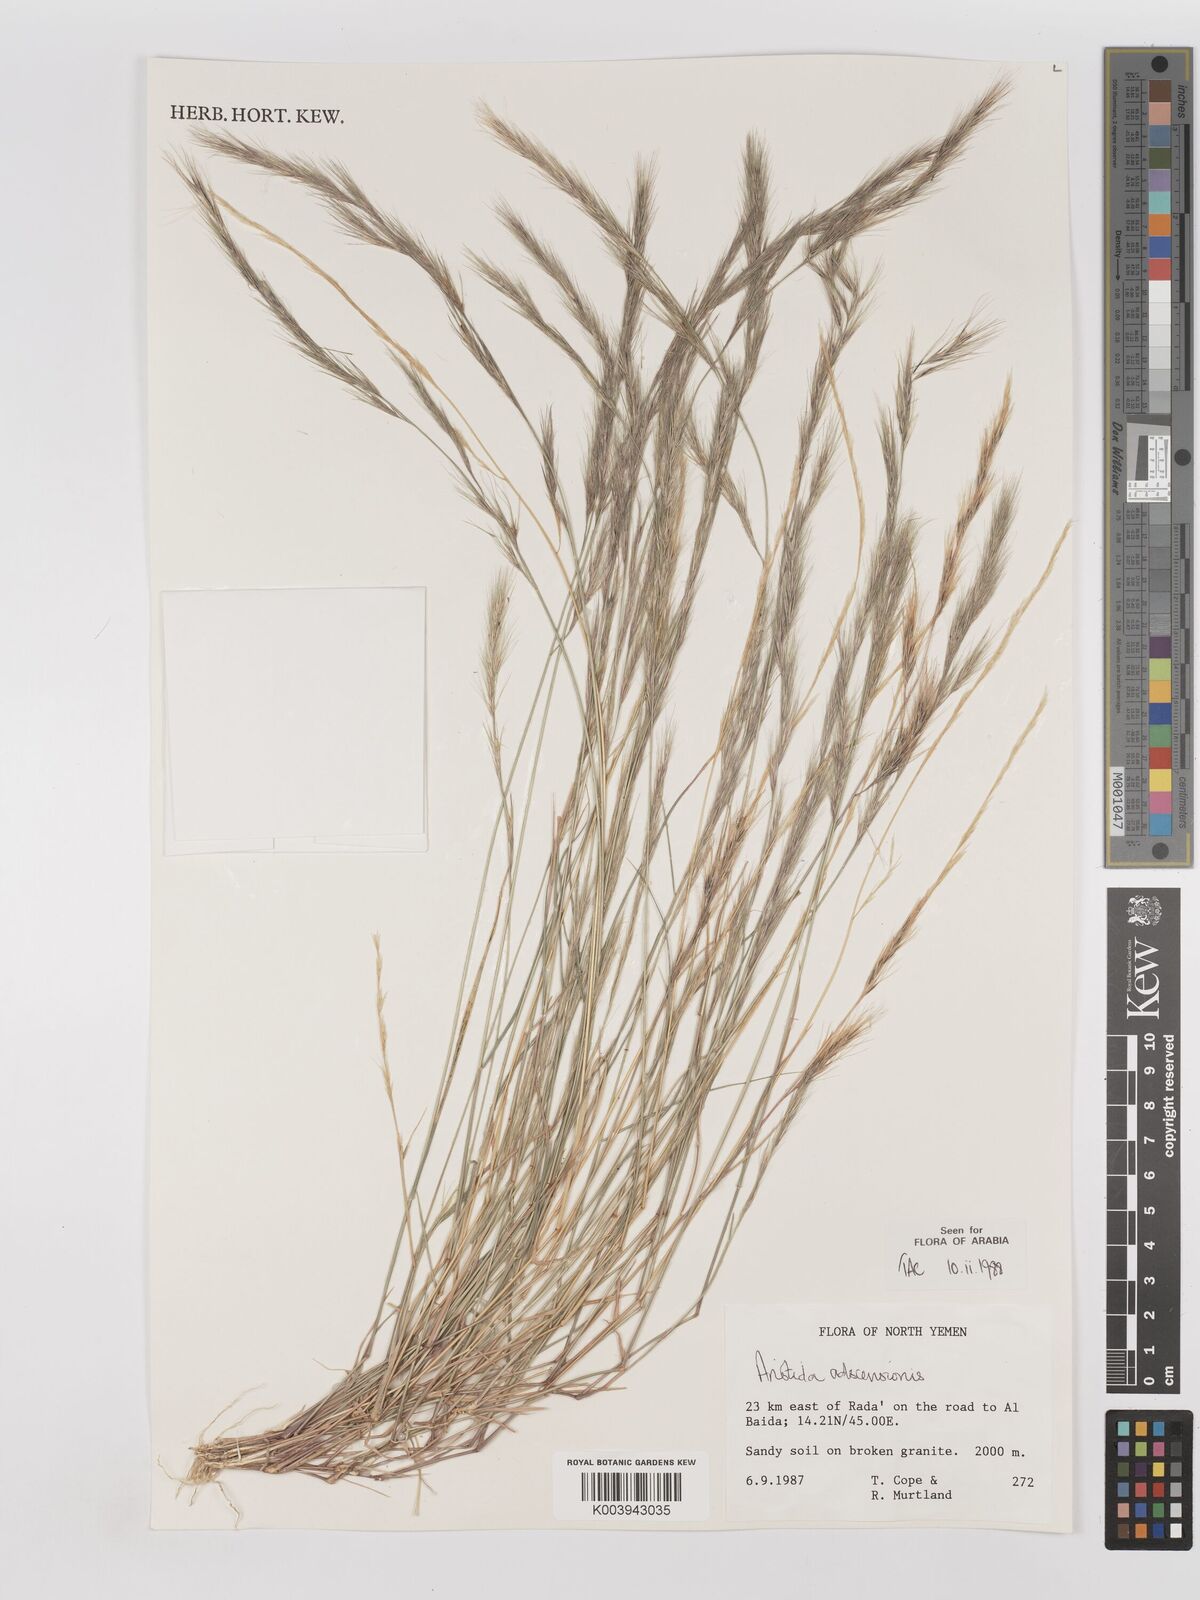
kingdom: Plantae
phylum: Tracheophyta
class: Liliopsida
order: Poales
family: Poaceae
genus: Aristida
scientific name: Aristida adscensionis
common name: Sixweeks threeawn
